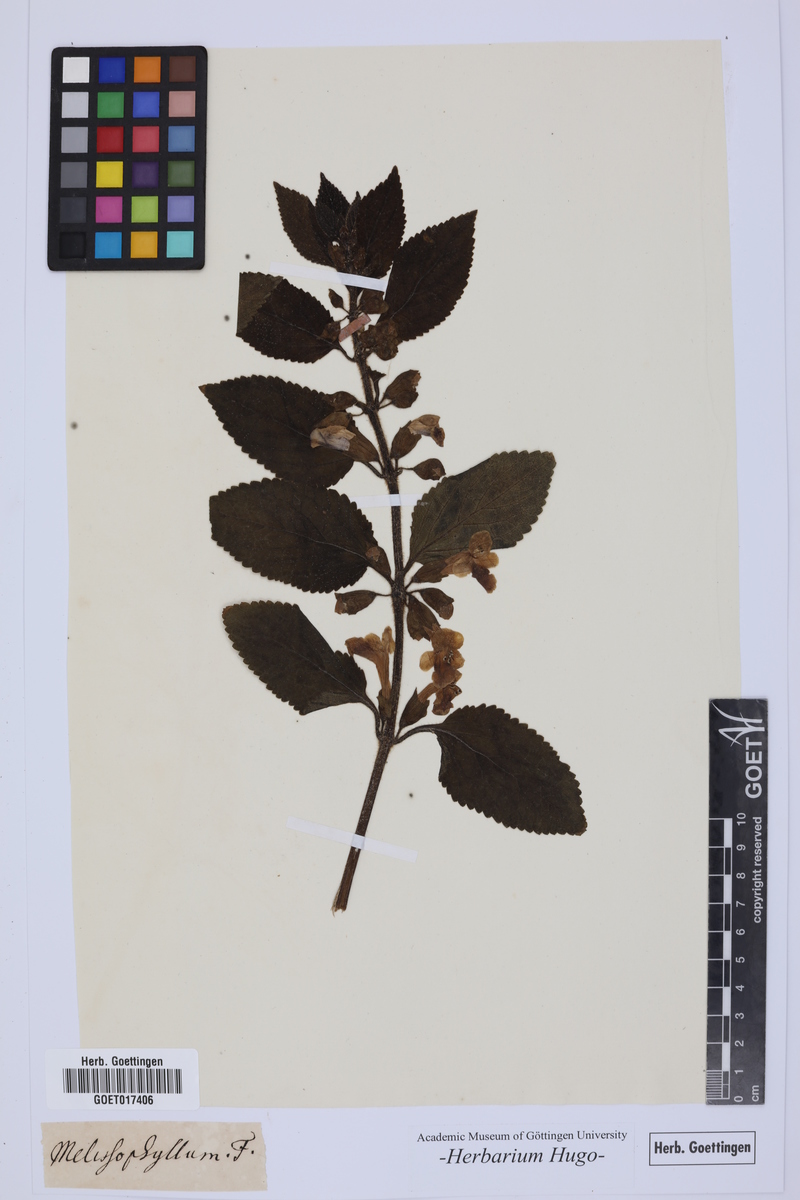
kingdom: Plantae
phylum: Tracheophyta
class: Magnoliopsida
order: Lamiales
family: Lamiaceae
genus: Melittis
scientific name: Melittis
